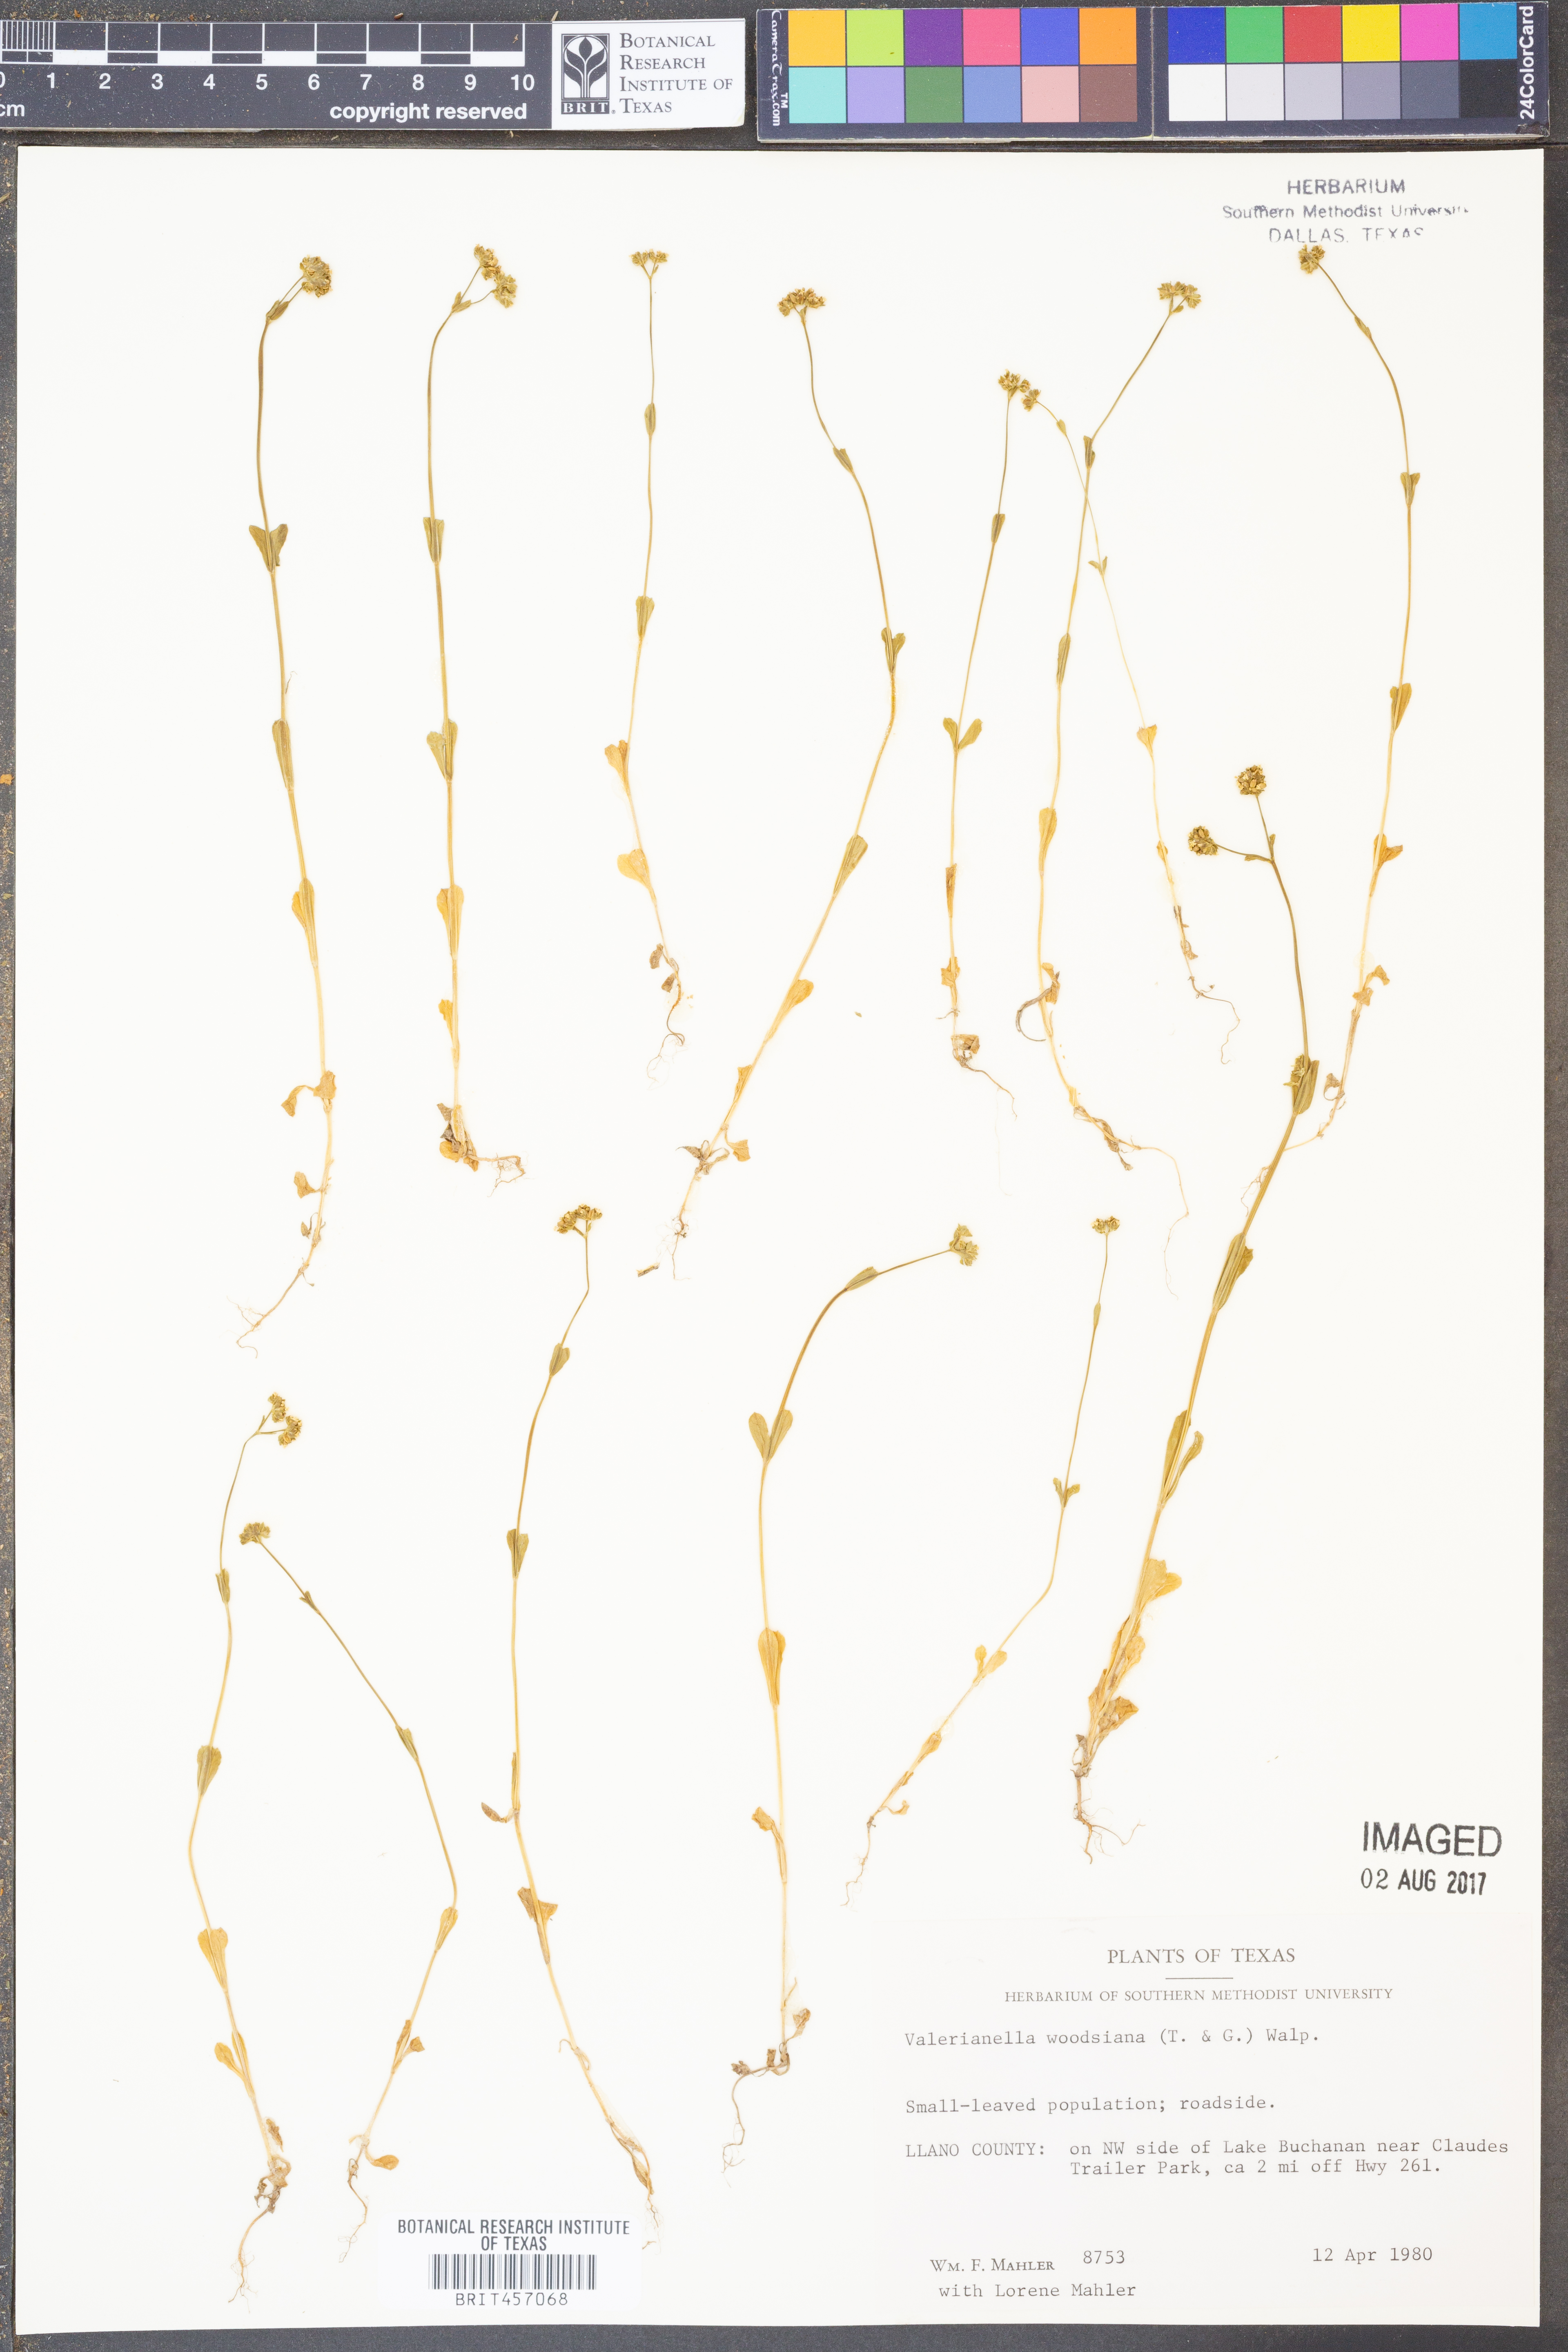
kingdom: Plantae
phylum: Tracheophyta
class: Magnoliopsida
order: Dipsacales
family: Caprifoliaceae
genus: Valerianella
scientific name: Valerianella radiata
